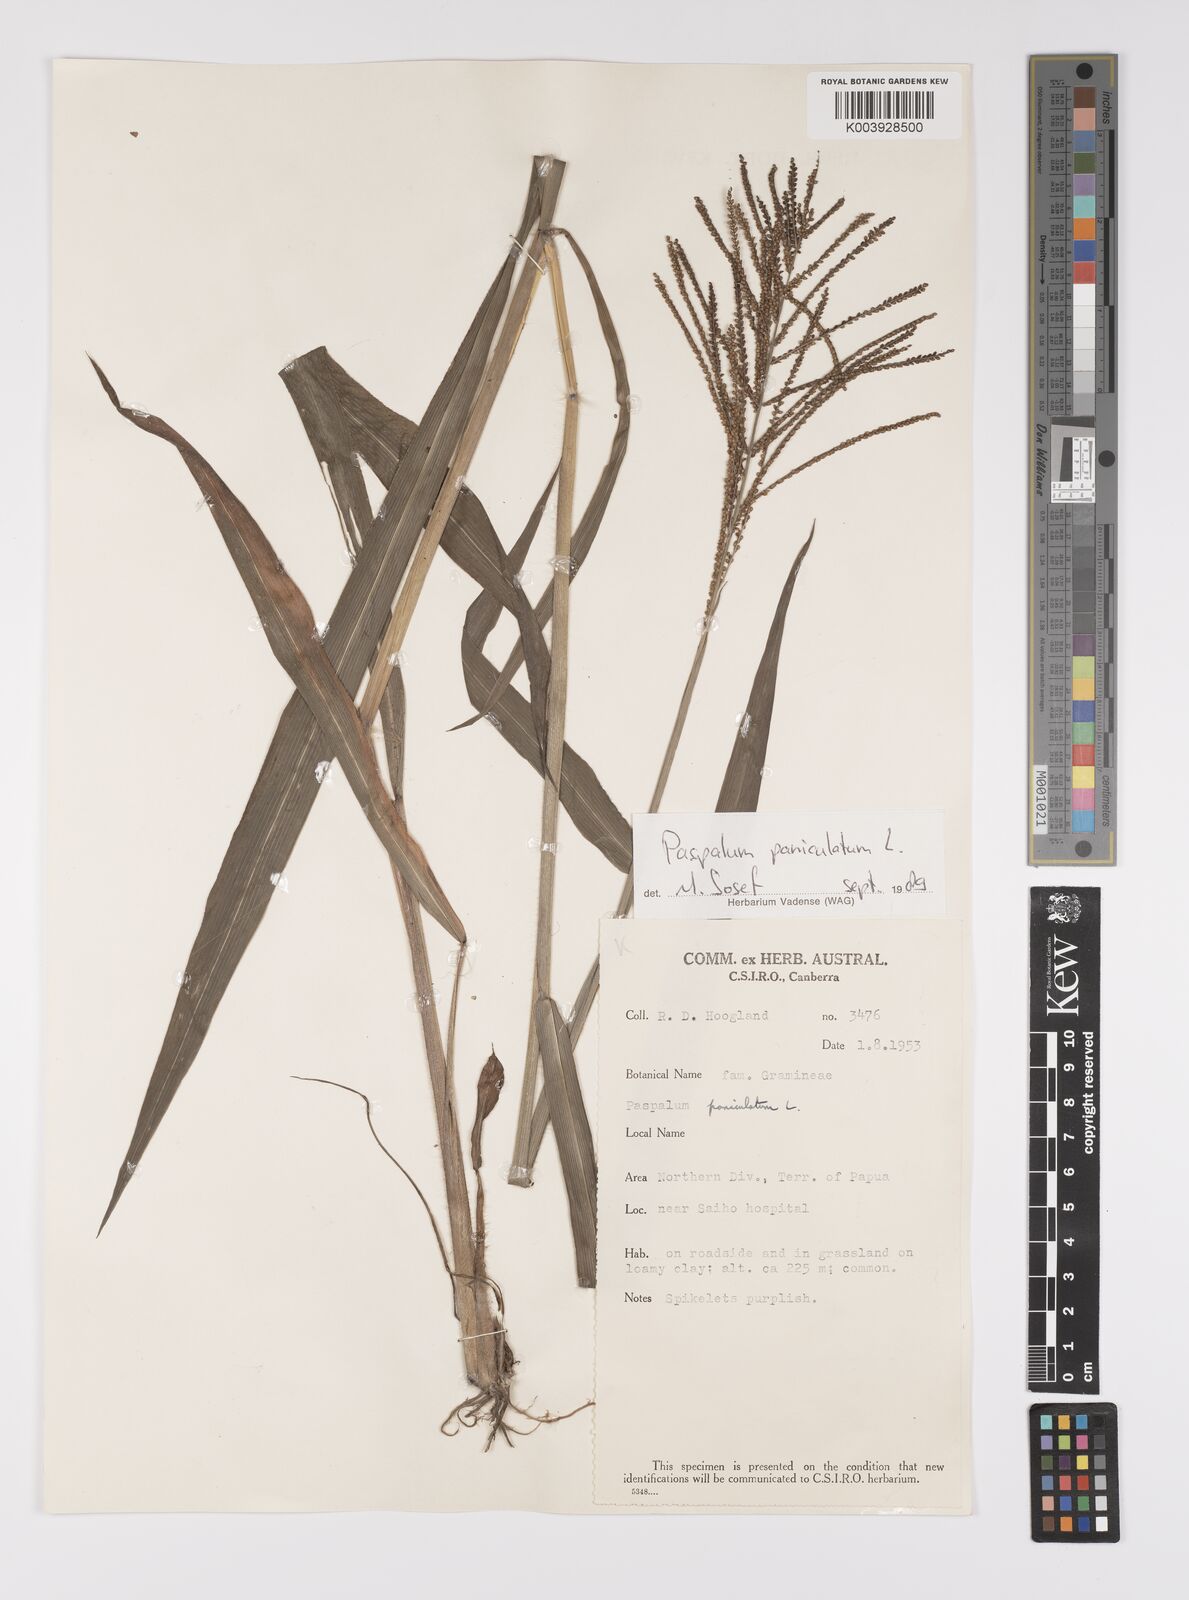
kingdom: Plantae
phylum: Tracheophyta
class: Liliopsida
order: Poales
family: Poaceae
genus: Paspalum
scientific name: Paspalum paniculatum
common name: Arrocillo
